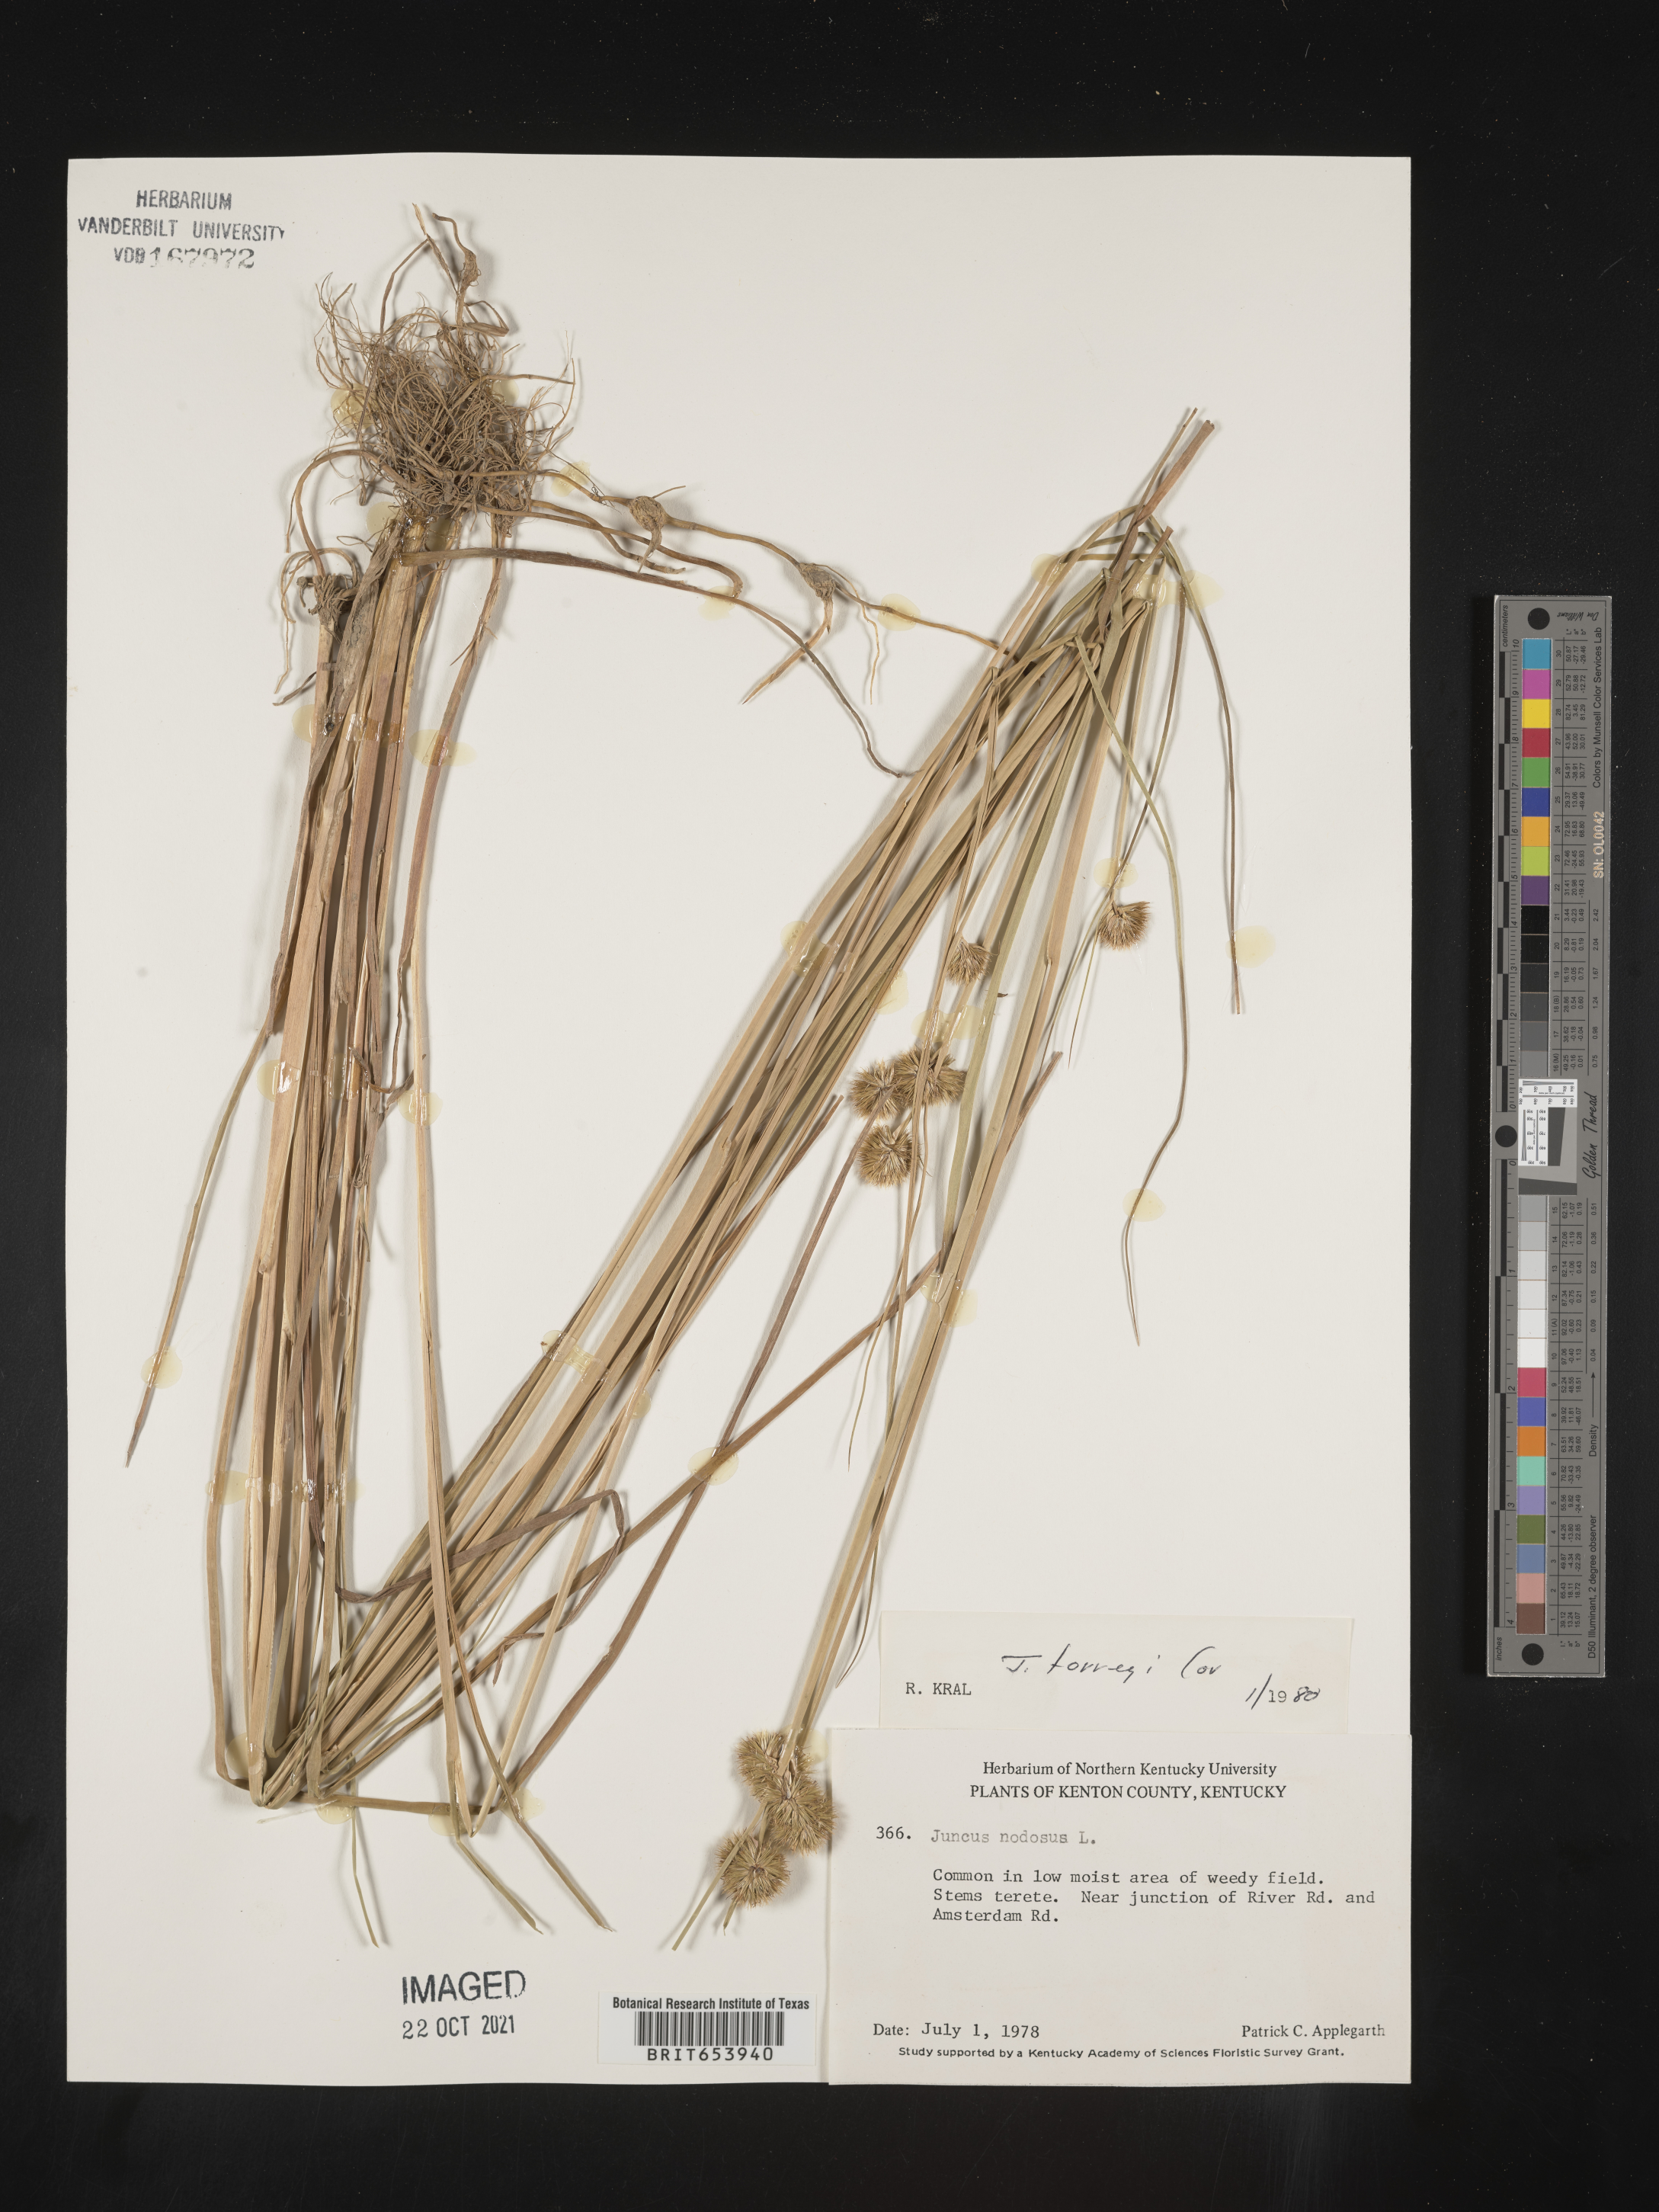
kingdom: Plantae
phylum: Tracheophyta
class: Liliopsida
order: Poales
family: Juncaceae
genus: Juncus
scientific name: Juncus torreyi
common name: Torrey's rush
